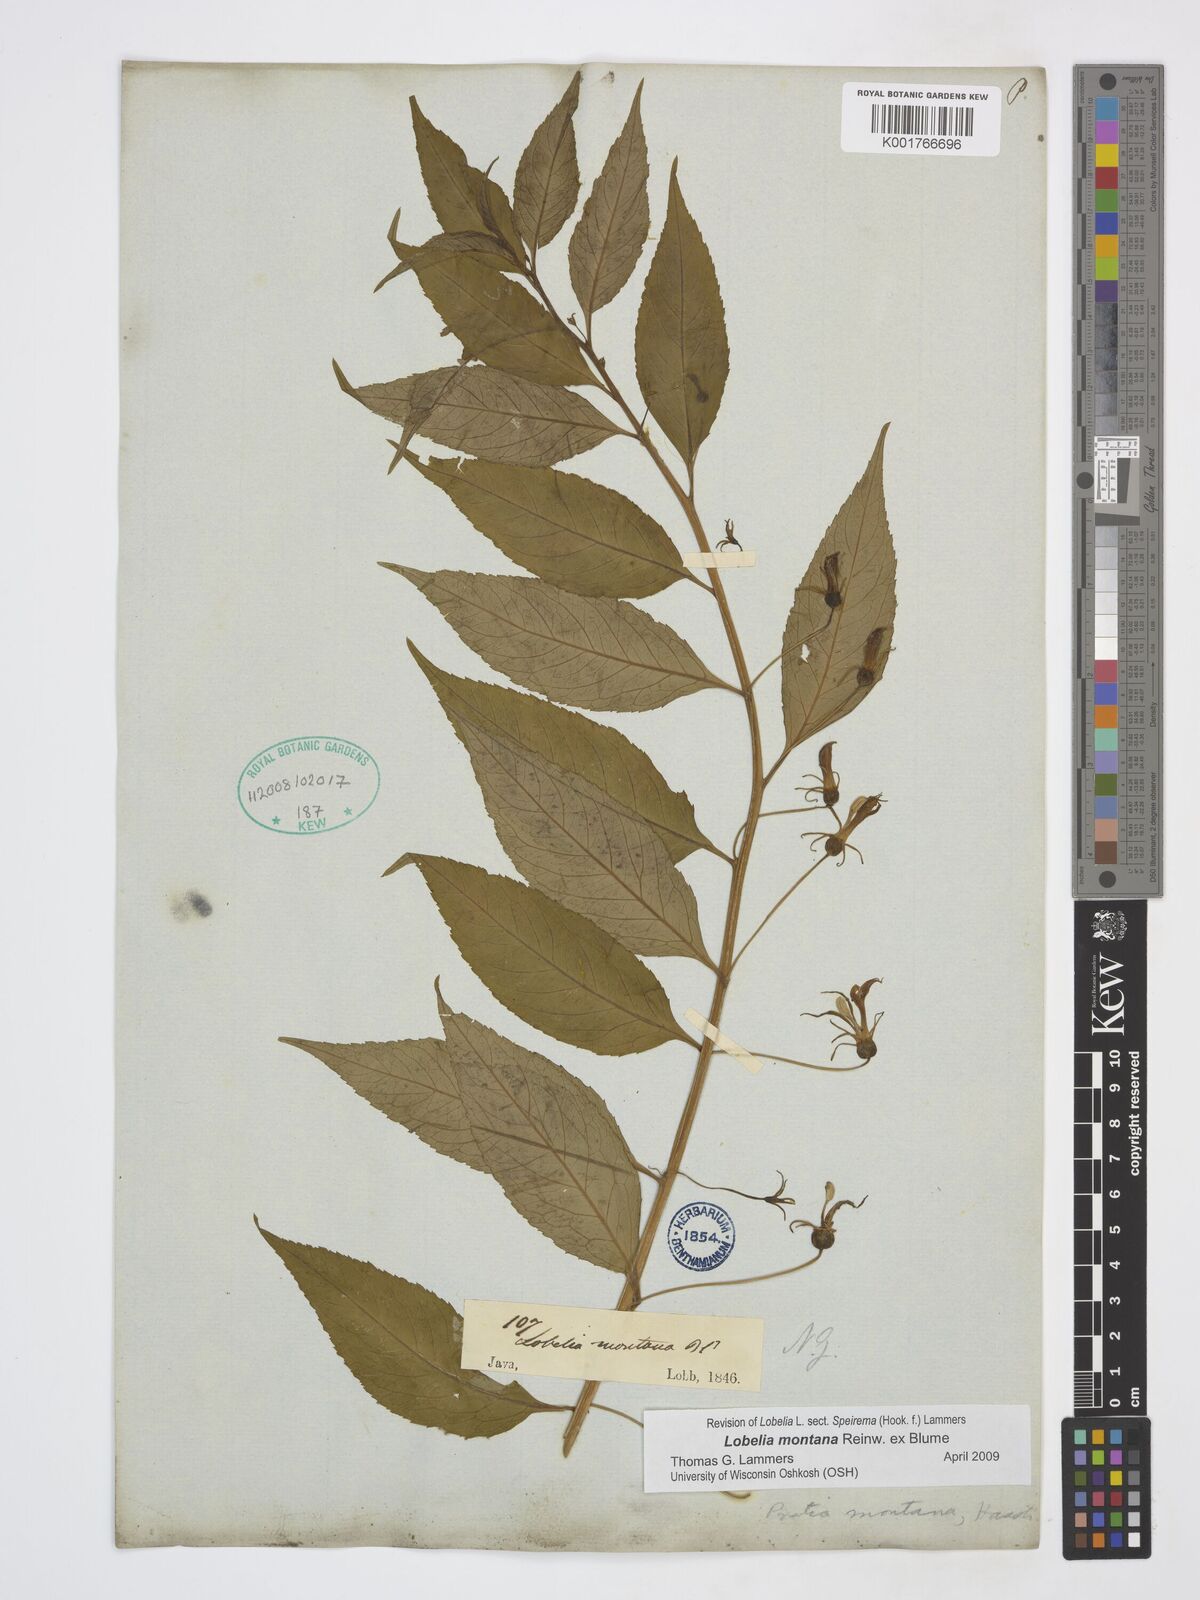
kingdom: Plantae
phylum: Tracheophyta
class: Magnoliopsida
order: Asterales
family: Campanulaceae
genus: Lobelia
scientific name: Lobelia montana
